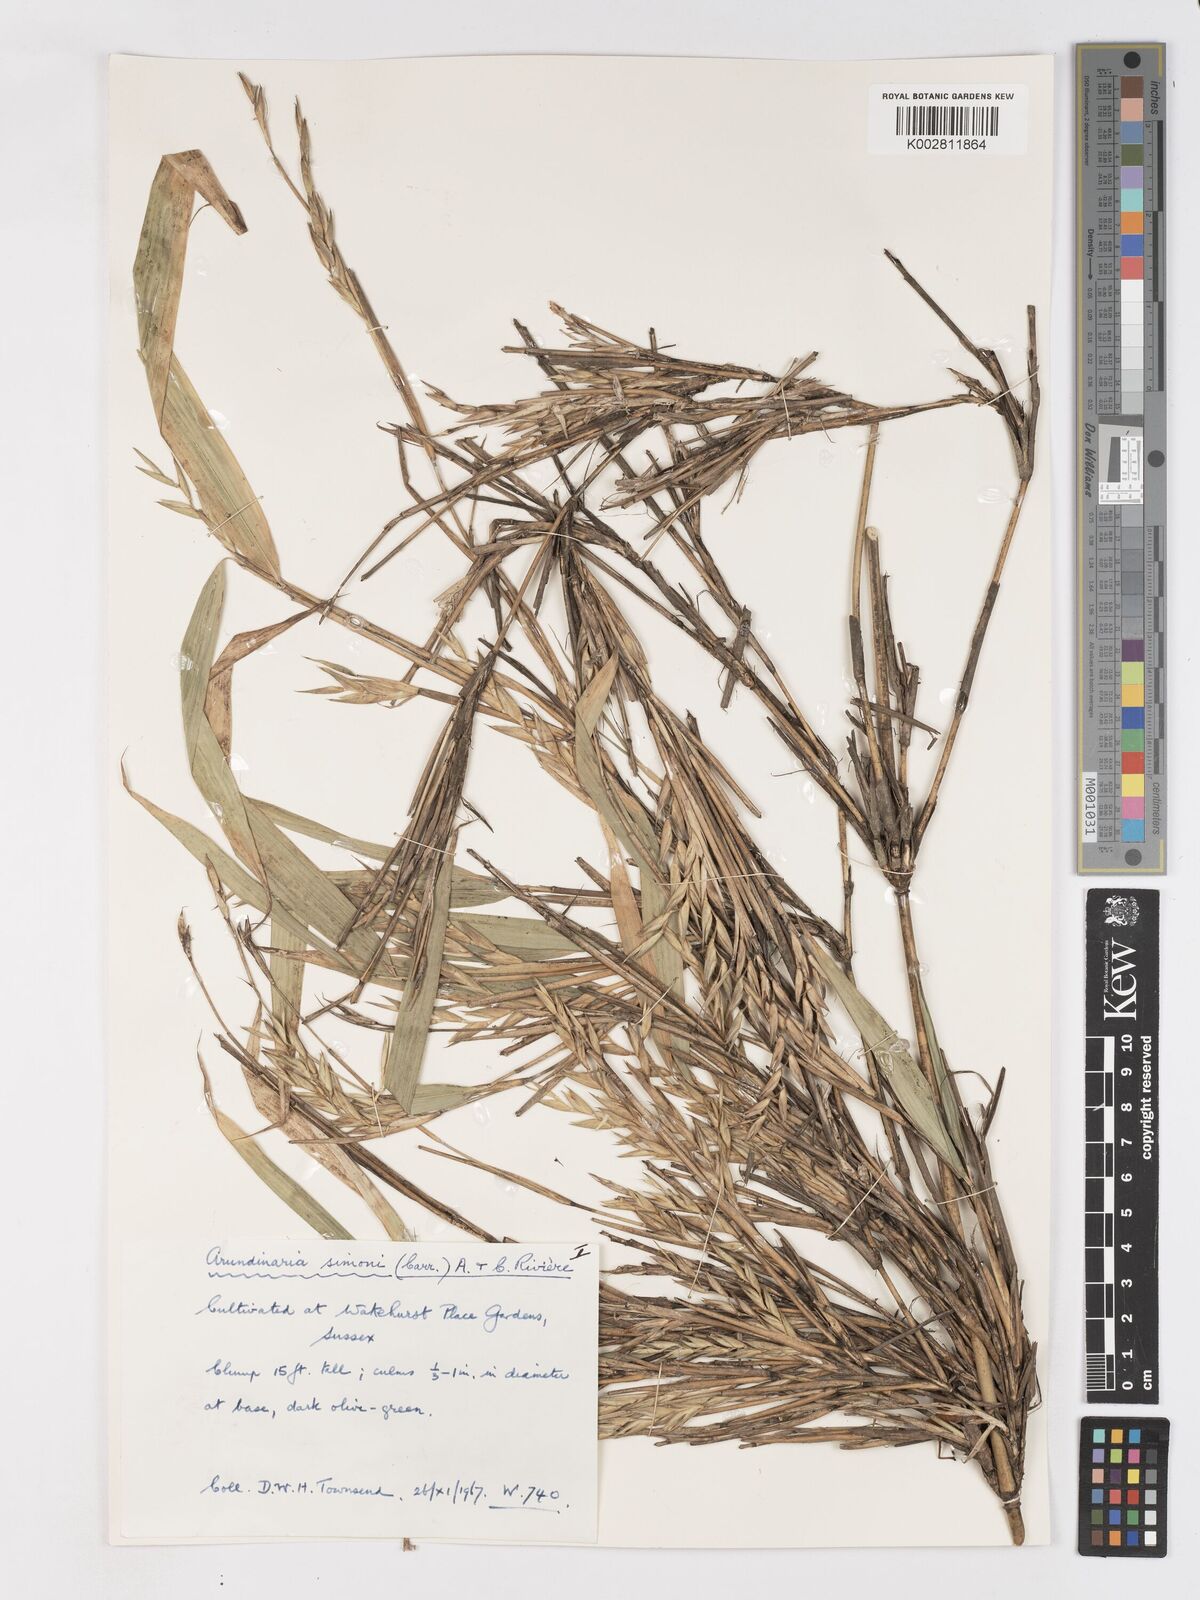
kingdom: Plantae
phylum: Tracheophyta
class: Liliopsida
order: Poales
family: Poaceae
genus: Pleioblastus
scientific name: Pleioblastus simonii
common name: Simon bamboo
